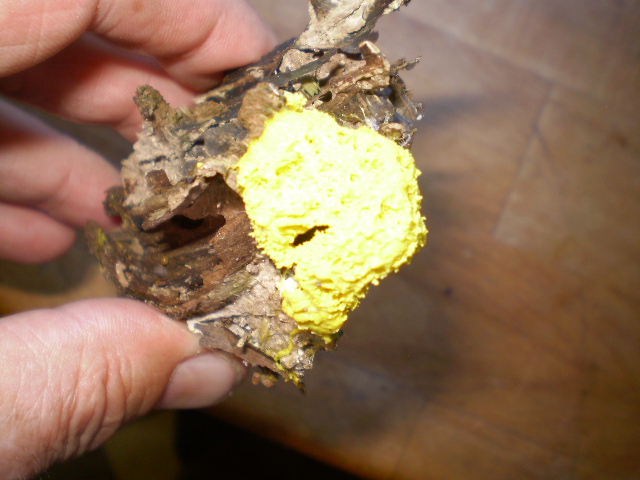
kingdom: Protozoa
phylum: Mycetozoa
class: Myxomycetes
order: Physarales
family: Physaraceae
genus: Fuligo
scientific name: Fuligo septica
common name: gul troldsmør
